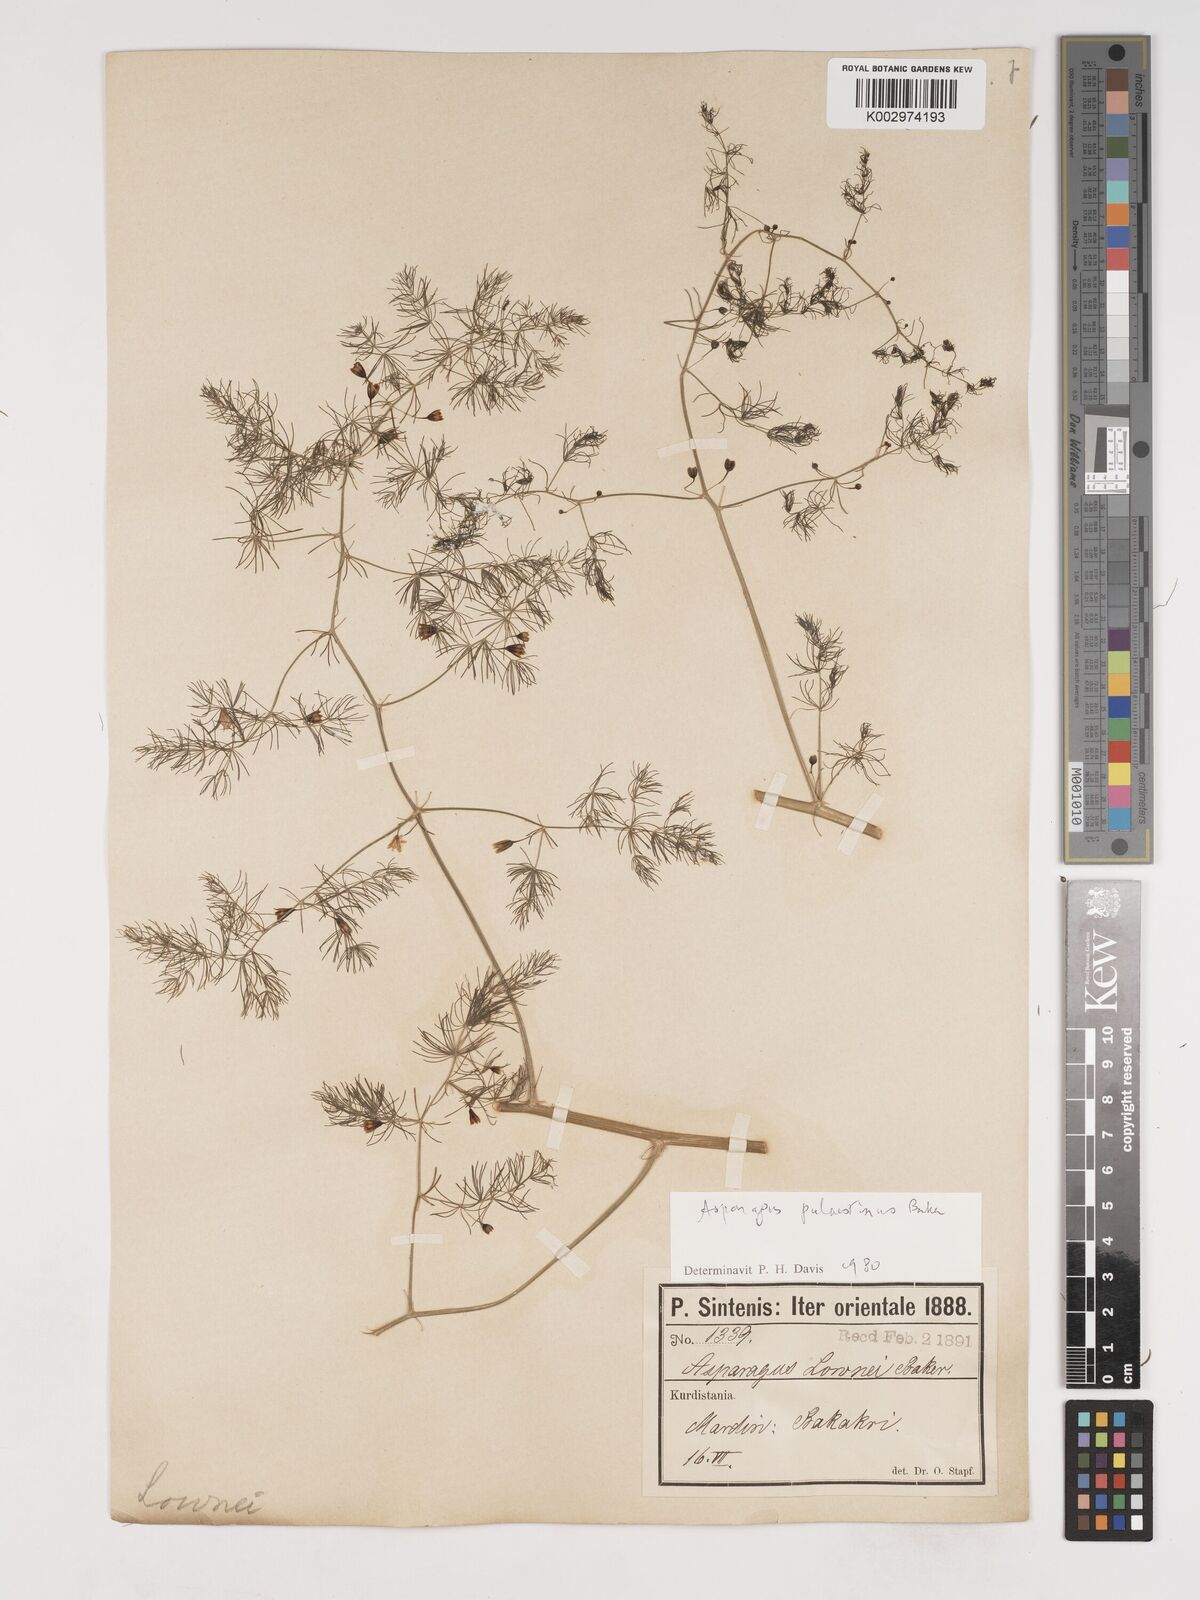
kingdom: Plantae
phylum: Tracheophyta
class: Liliopsida
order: Asparagales
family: Asparagaceae
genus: Asparagus
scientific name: Asparagus palaestinus
